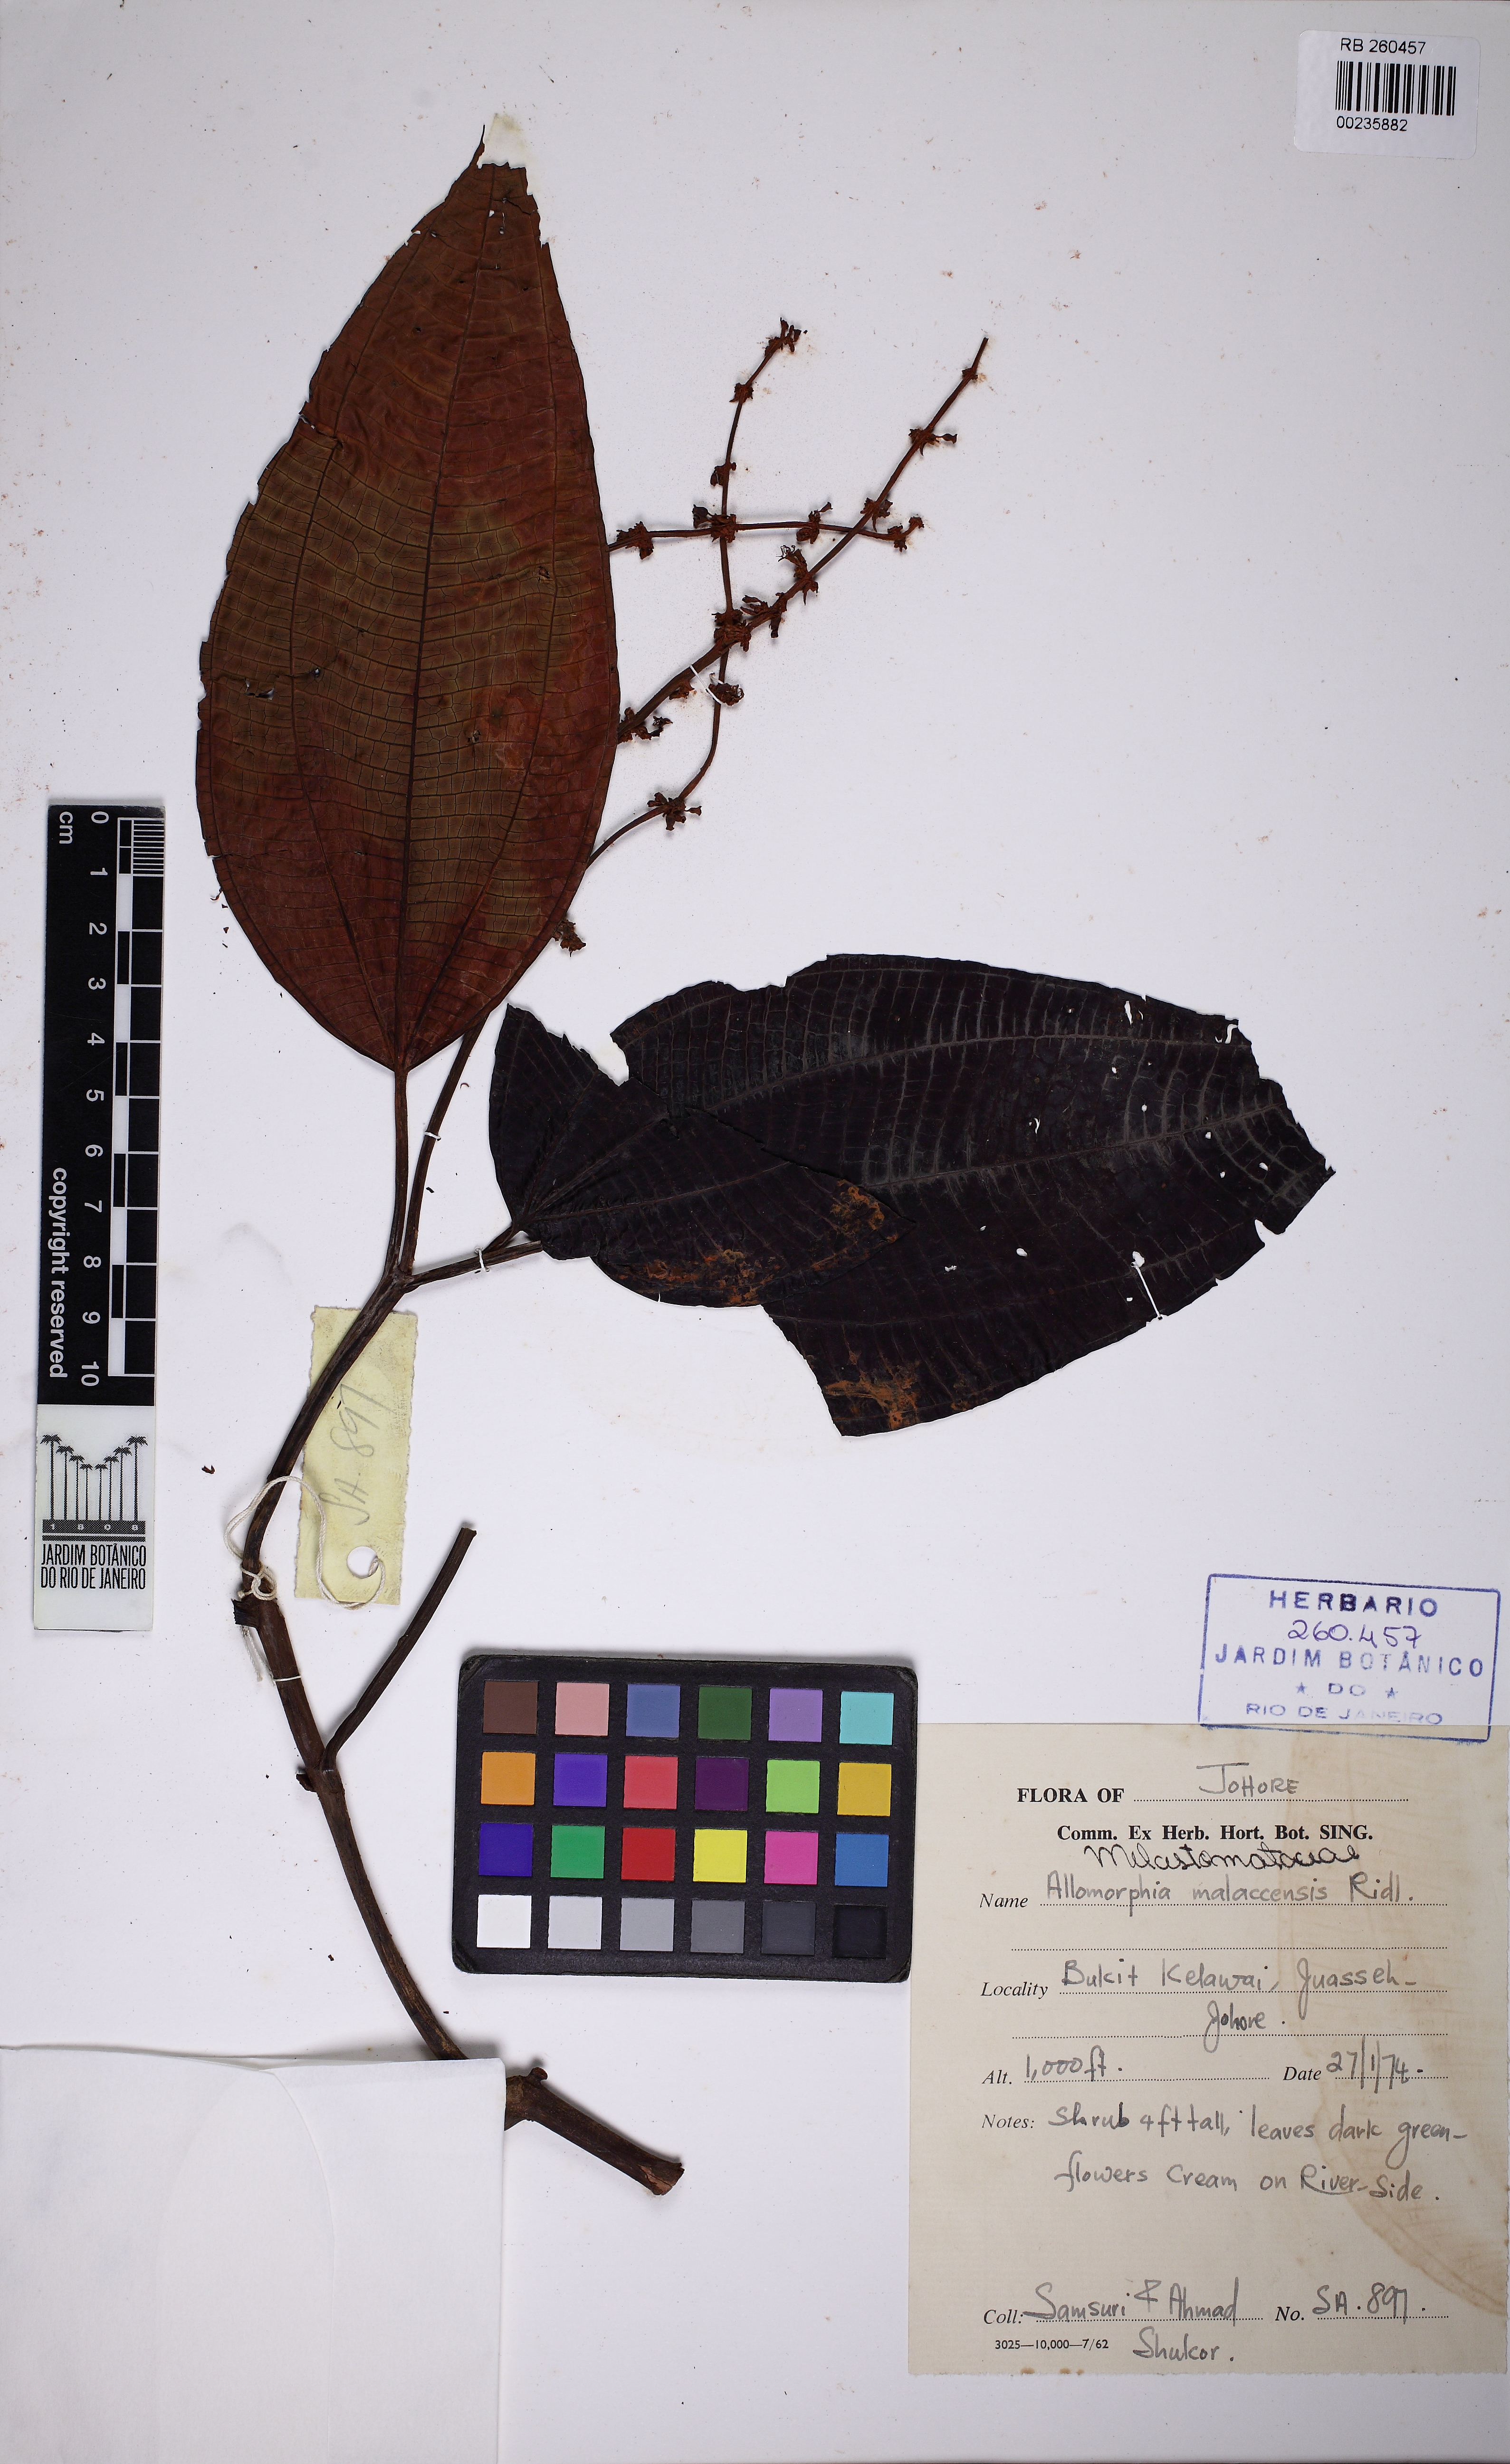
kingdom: Plantae
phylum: Tracheophyta
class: Magnoliopsida
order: Myrtales
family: Melastomataceae
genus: Allomorphia
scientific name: Allomorphia bullata
